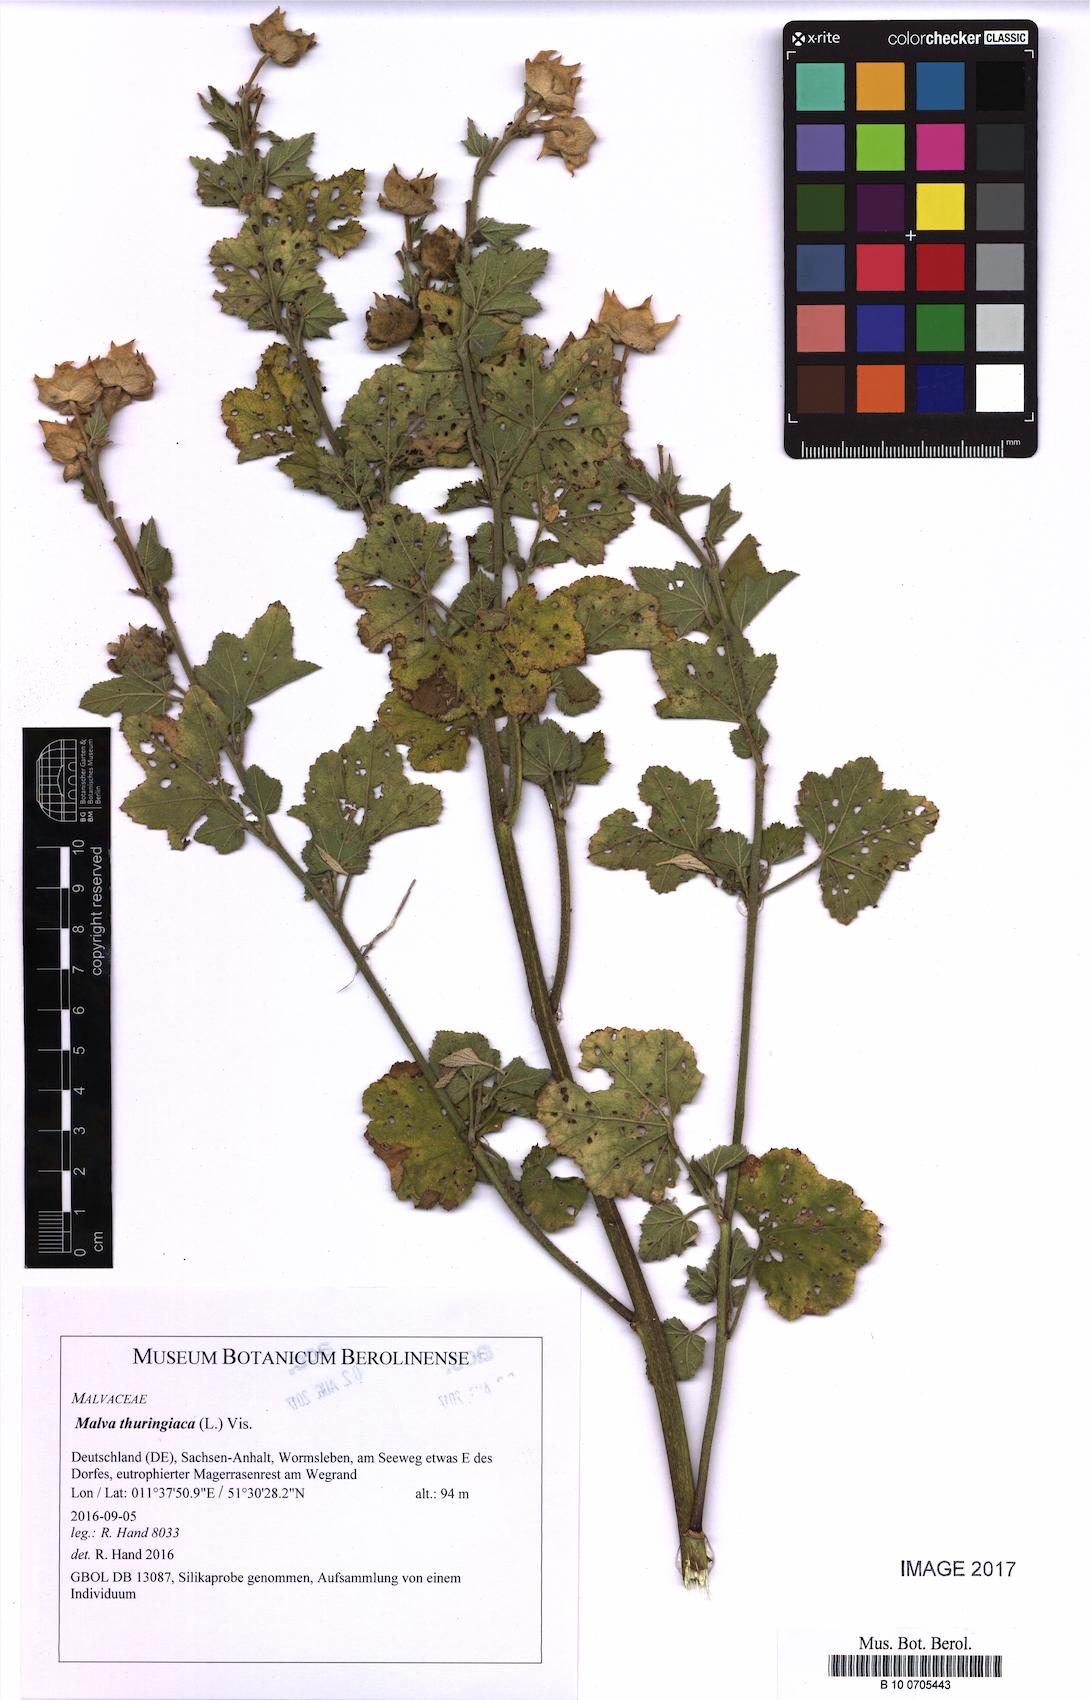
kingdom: Plantae
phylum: Tracheophyta
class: Magnoliopsida
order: Malvales
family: Malvaceae
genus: Malva
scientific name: Malva thuringiaca
